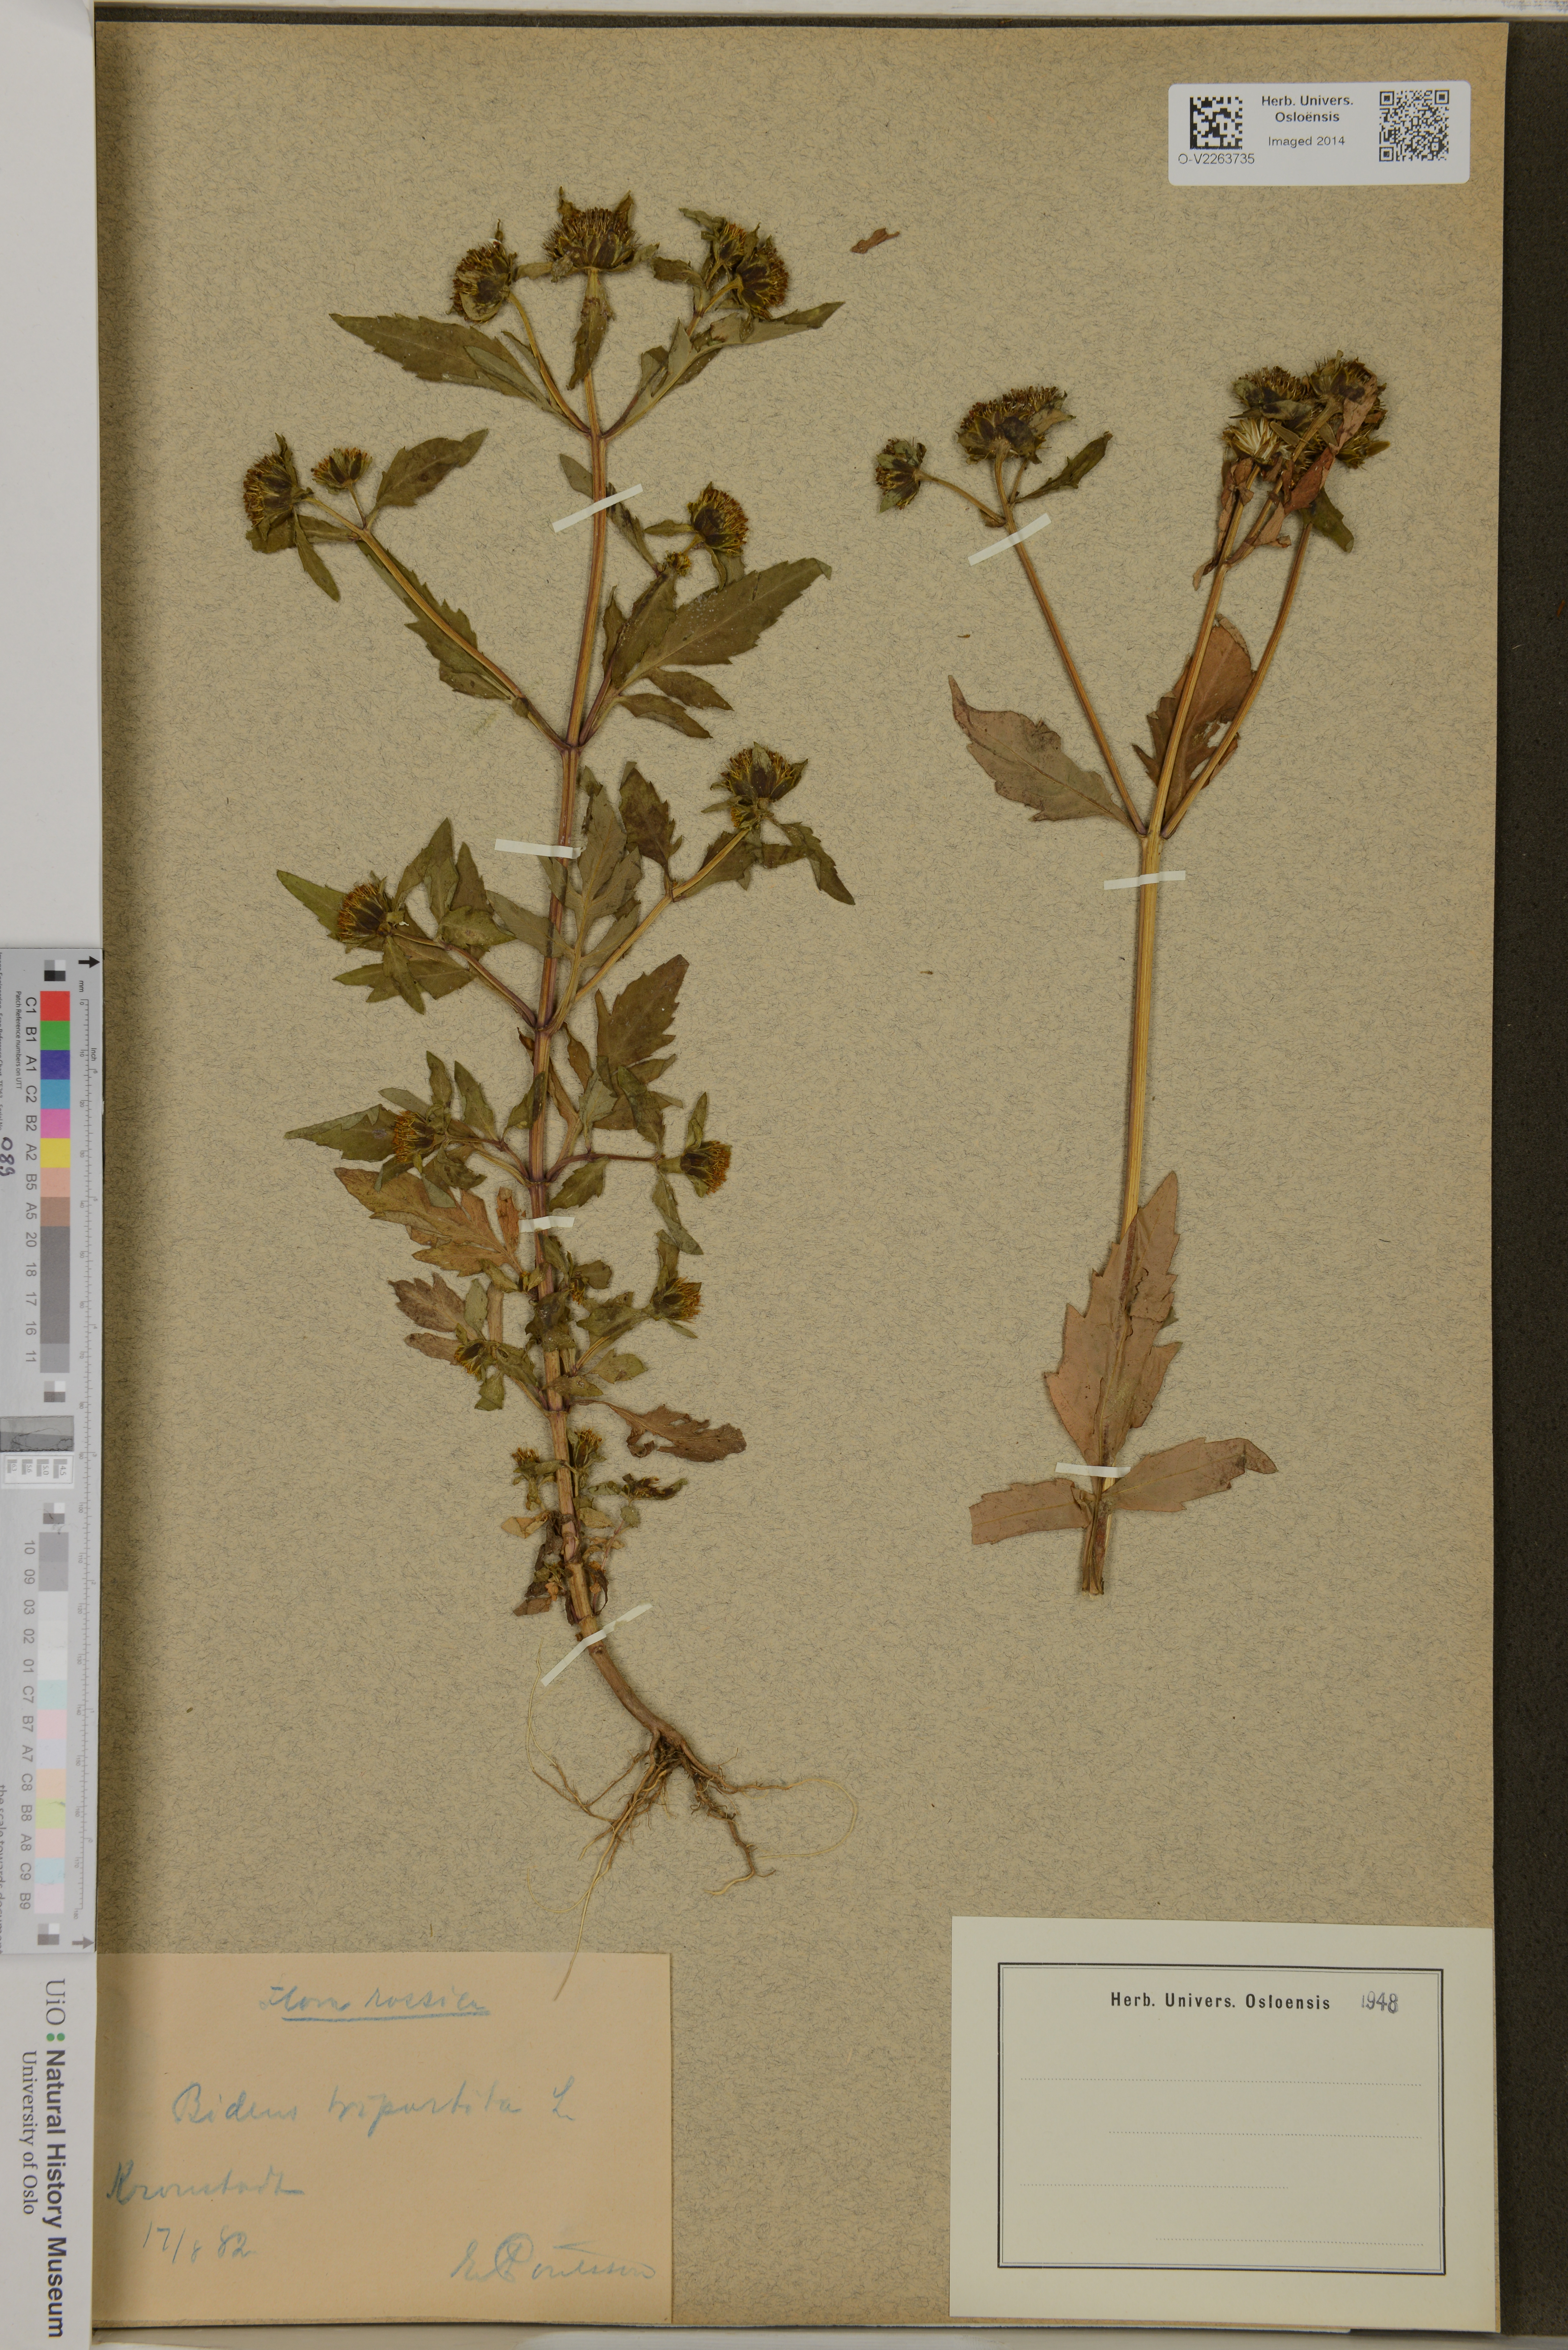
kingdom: Plantae
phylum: Tracheophyta
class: Magnoliopsida
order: Asterales
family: Asteraceae
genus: Bidens
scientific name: Bidens tripartita
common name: Trifid bur-marigold
